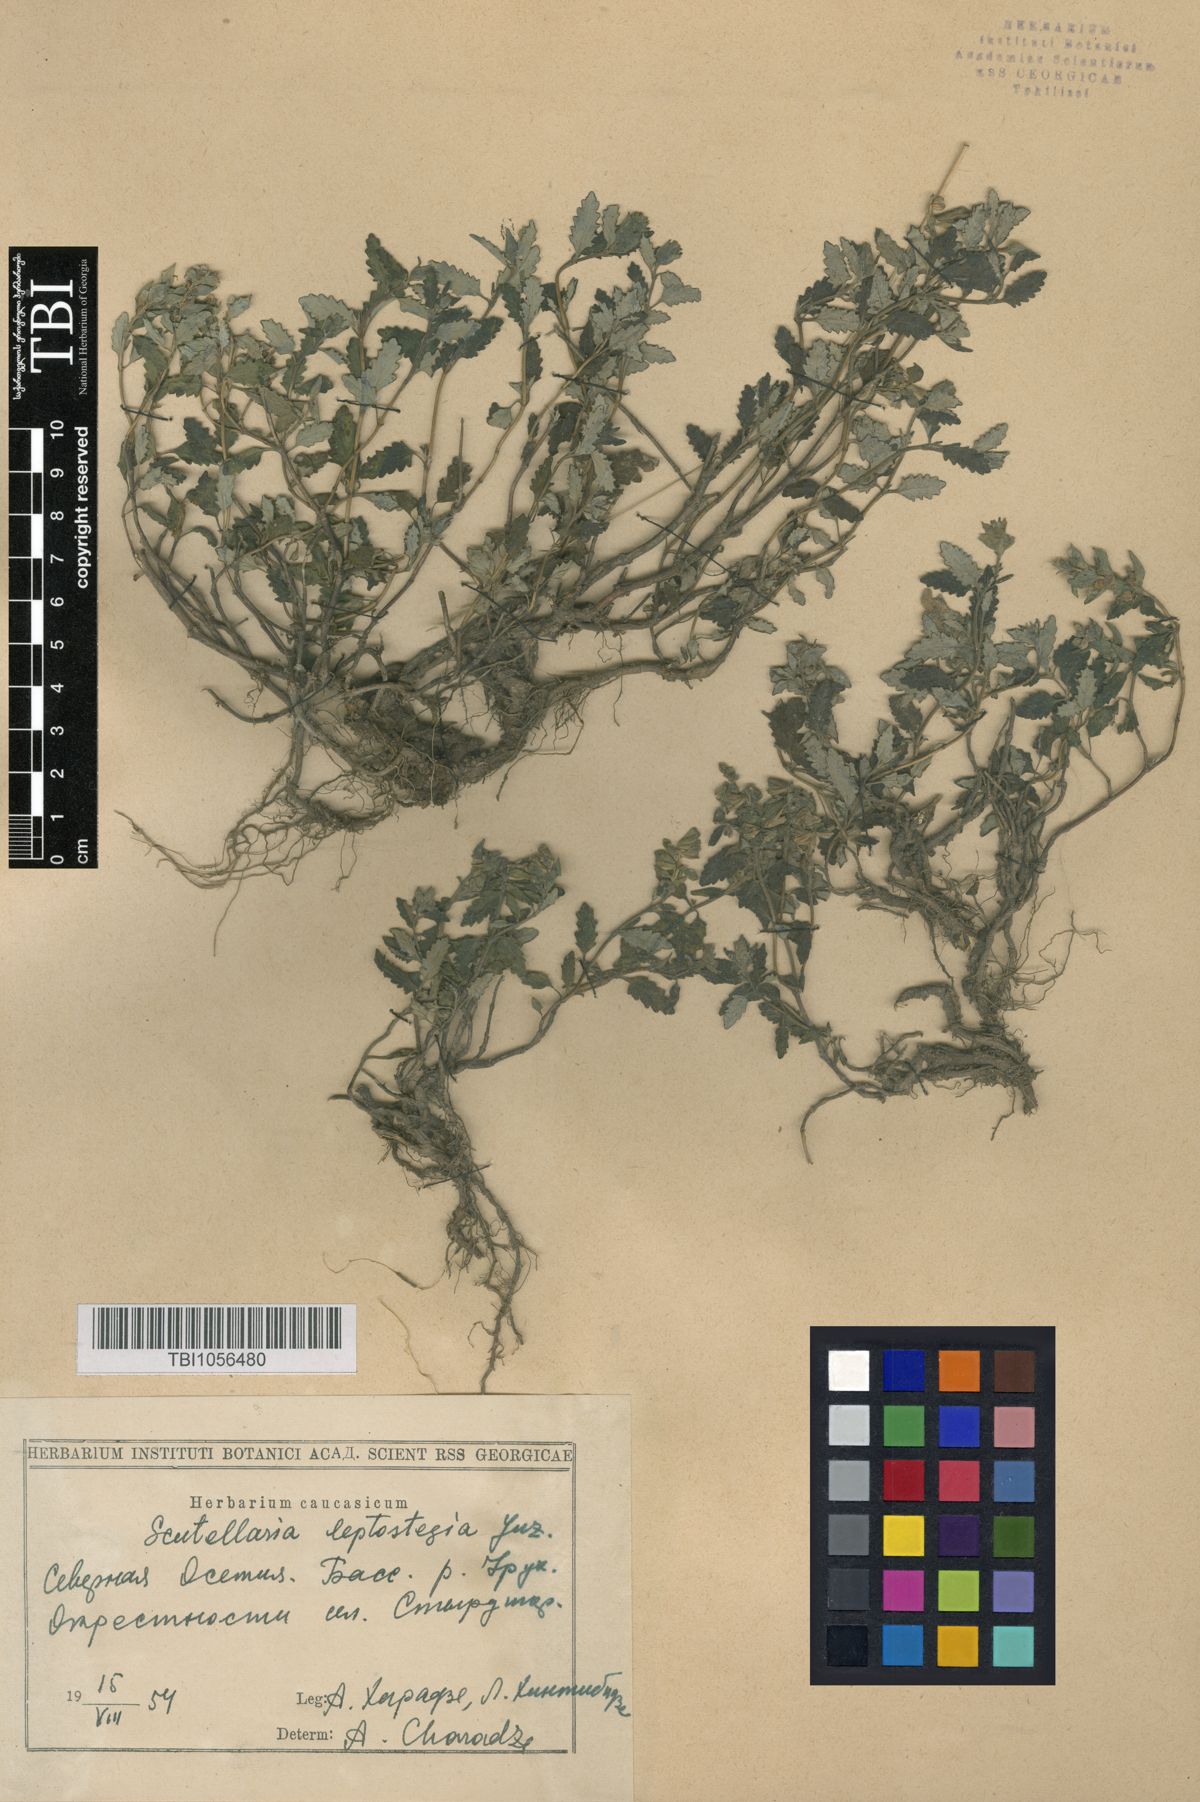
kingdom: Plantae
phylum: Tracheophyta
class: Magnoliopsida
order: Lamiales
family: Lamiaceae
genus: Scutellaria
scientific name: Scutellaria leptostegia
